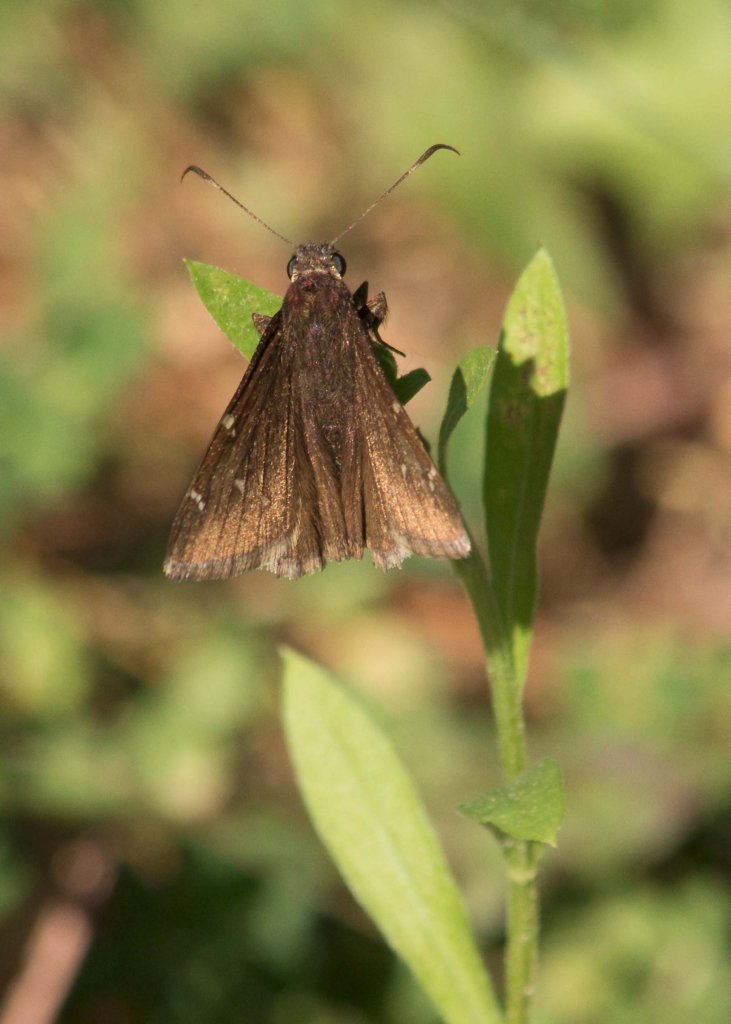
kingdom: Animalia
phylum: Arthropoda
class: Insecta
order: Lepidoptera
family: Hesperiidae
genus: Autochton
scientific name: Autochton
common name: Northern Cloudywing
